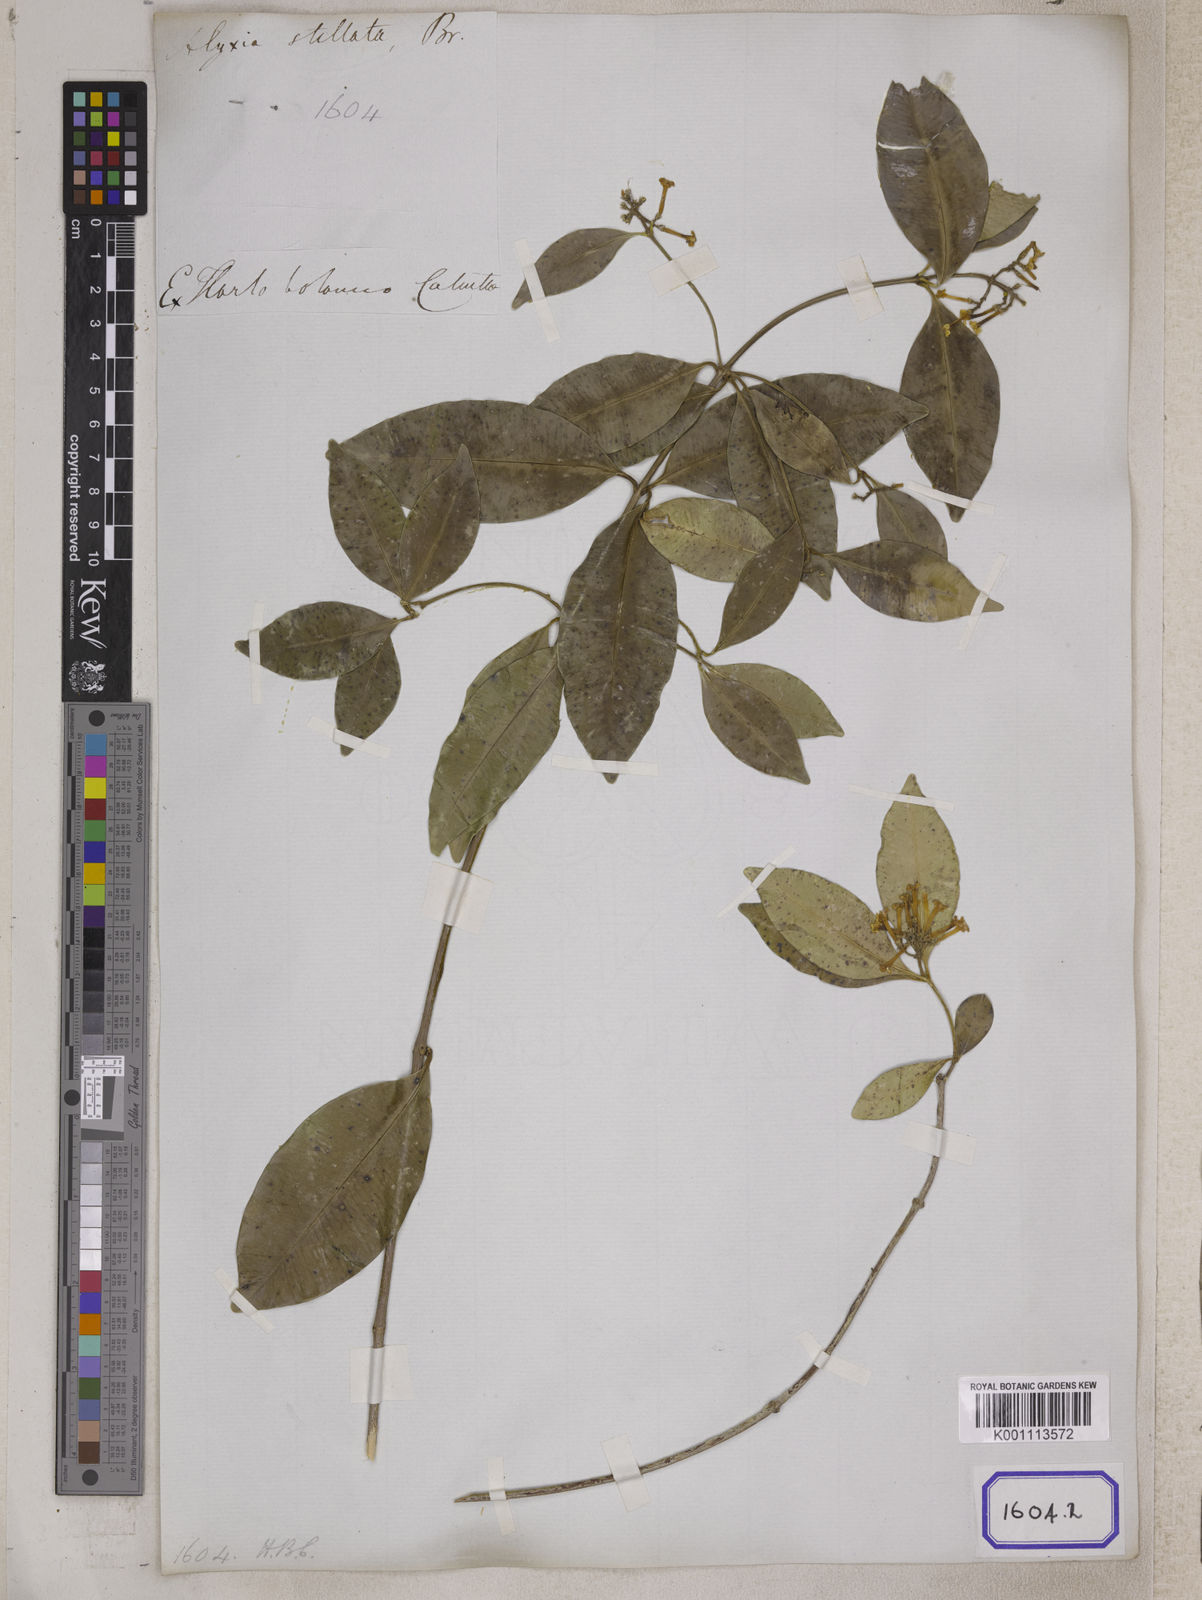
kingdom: Plantae
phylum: Tracheophyta
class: Magnoliopsida
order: Gentianales
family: Apocynaceae
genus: Alyxia
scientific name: Alyxia
